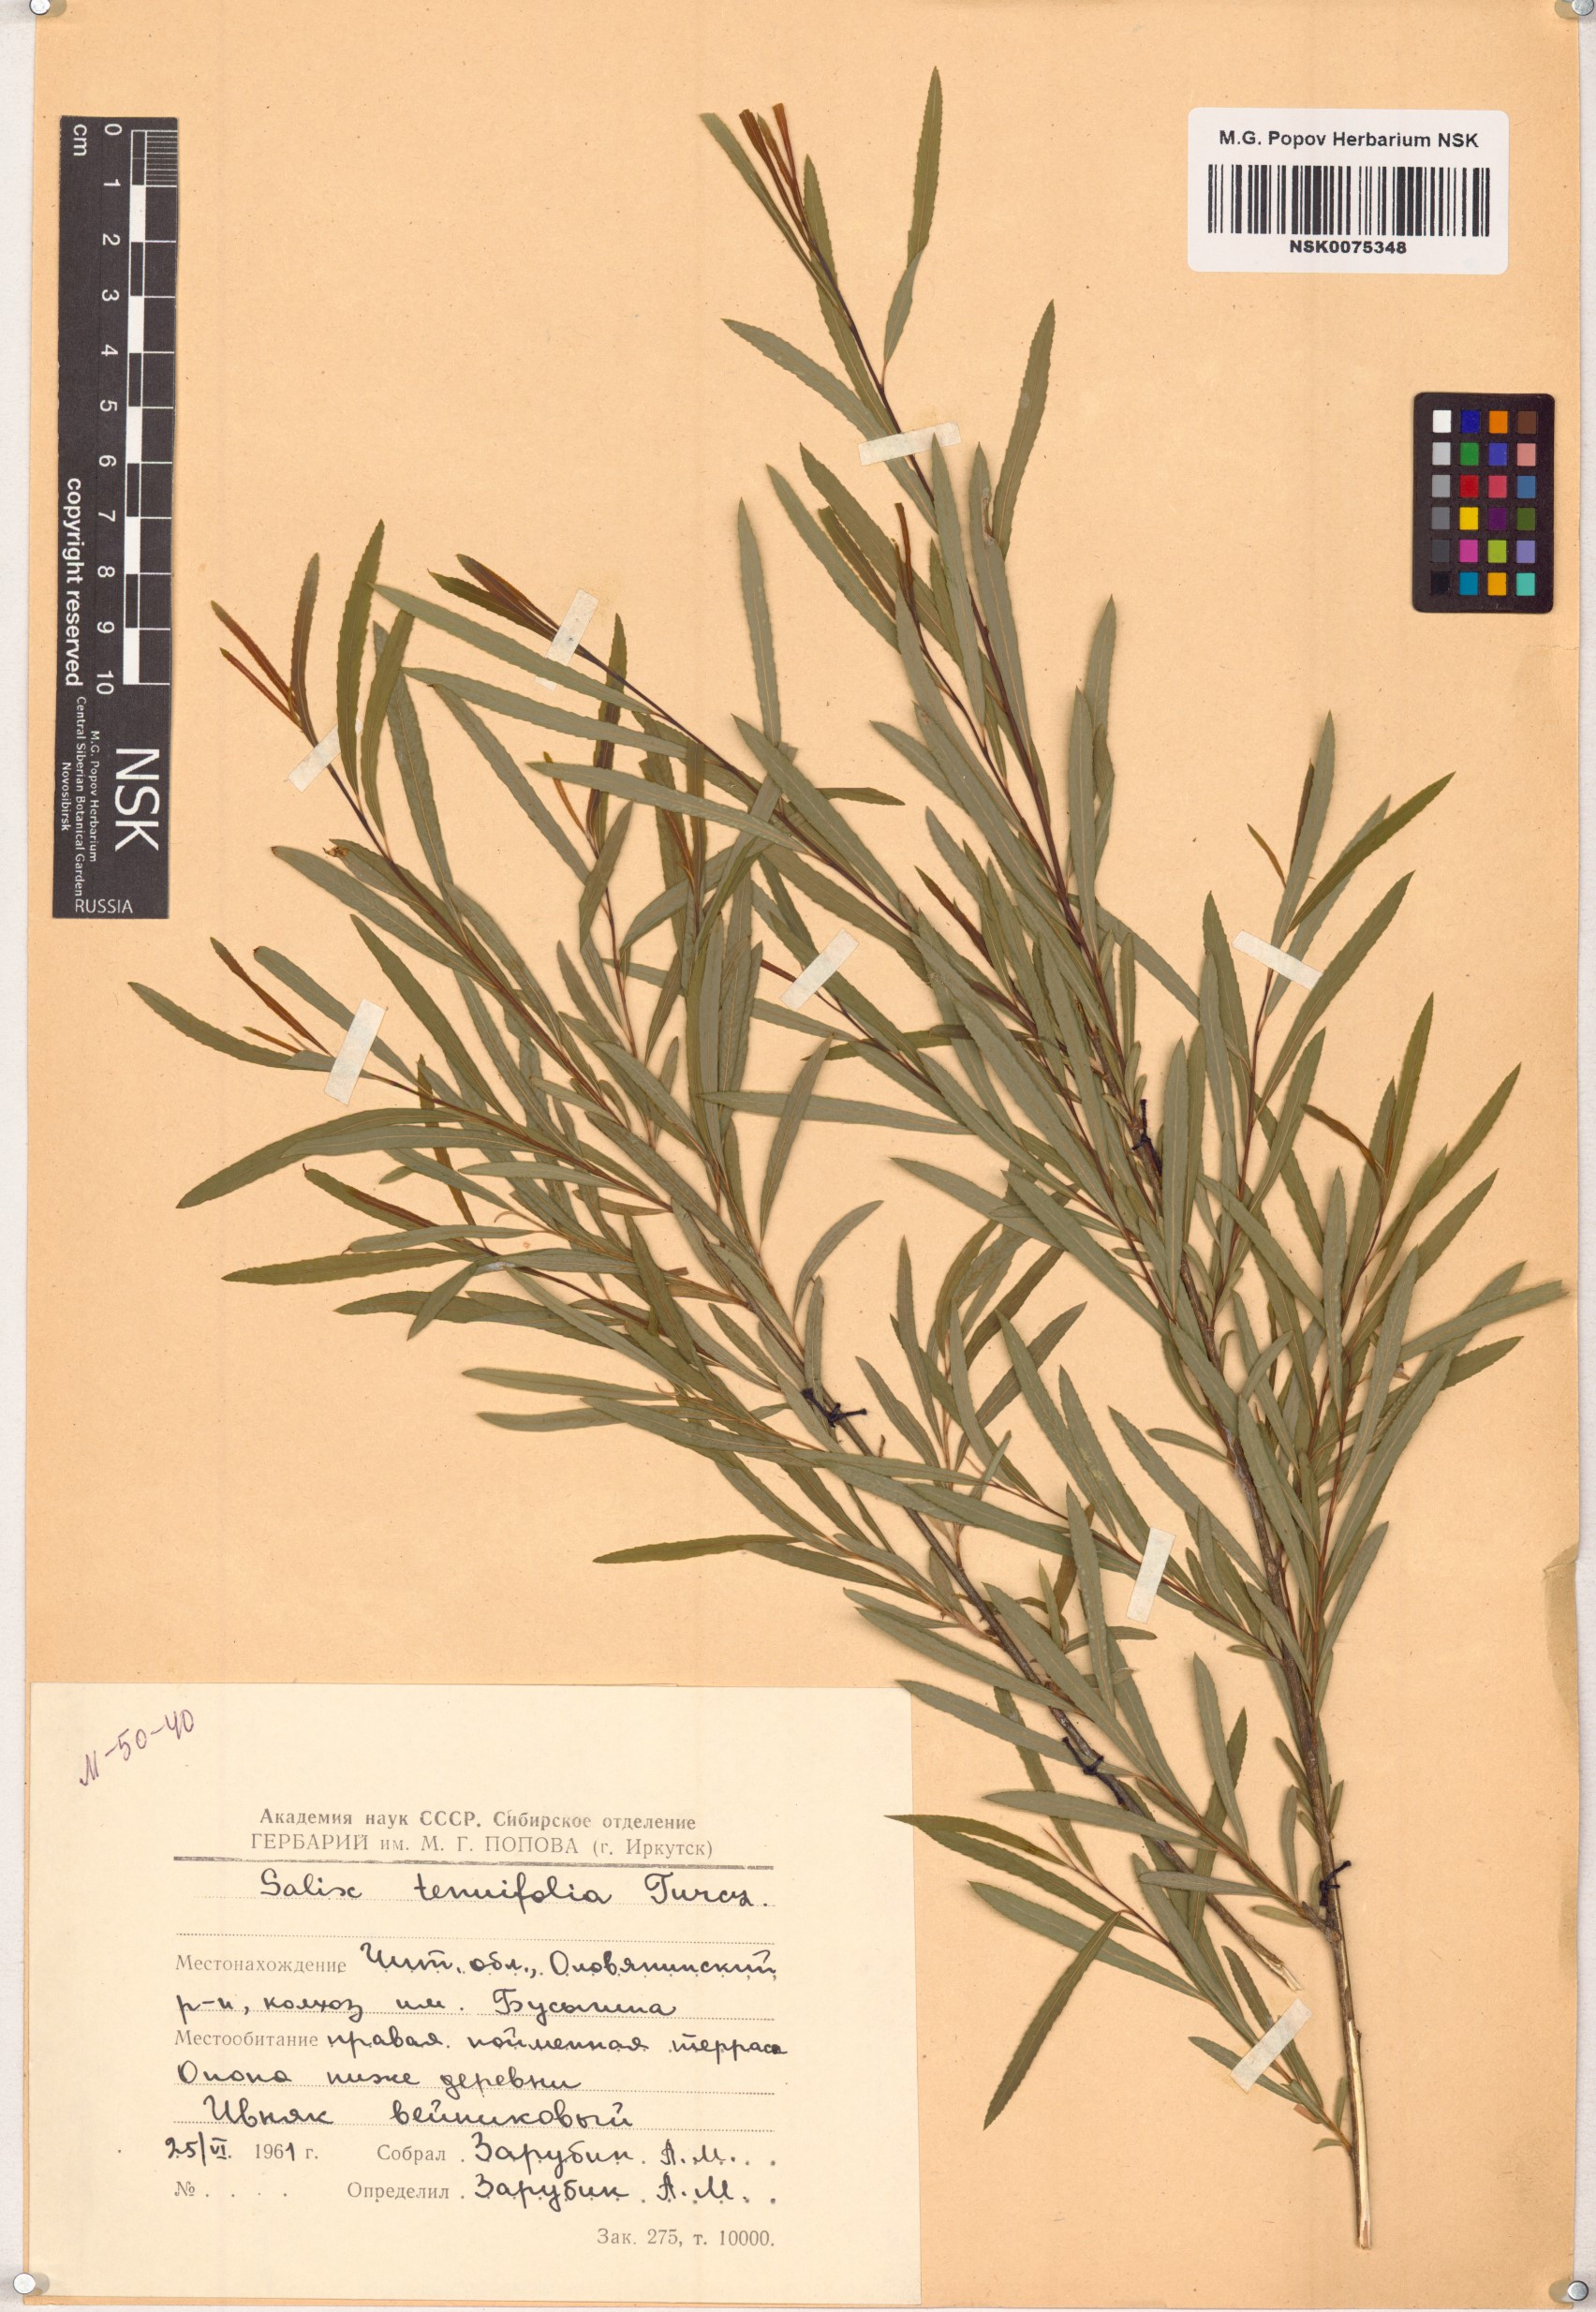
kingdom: Plantae
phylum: Tracheophyta
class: Magnoliopsida
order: Malpighiales
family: Salicaceae
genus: Salix
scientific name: Salix
